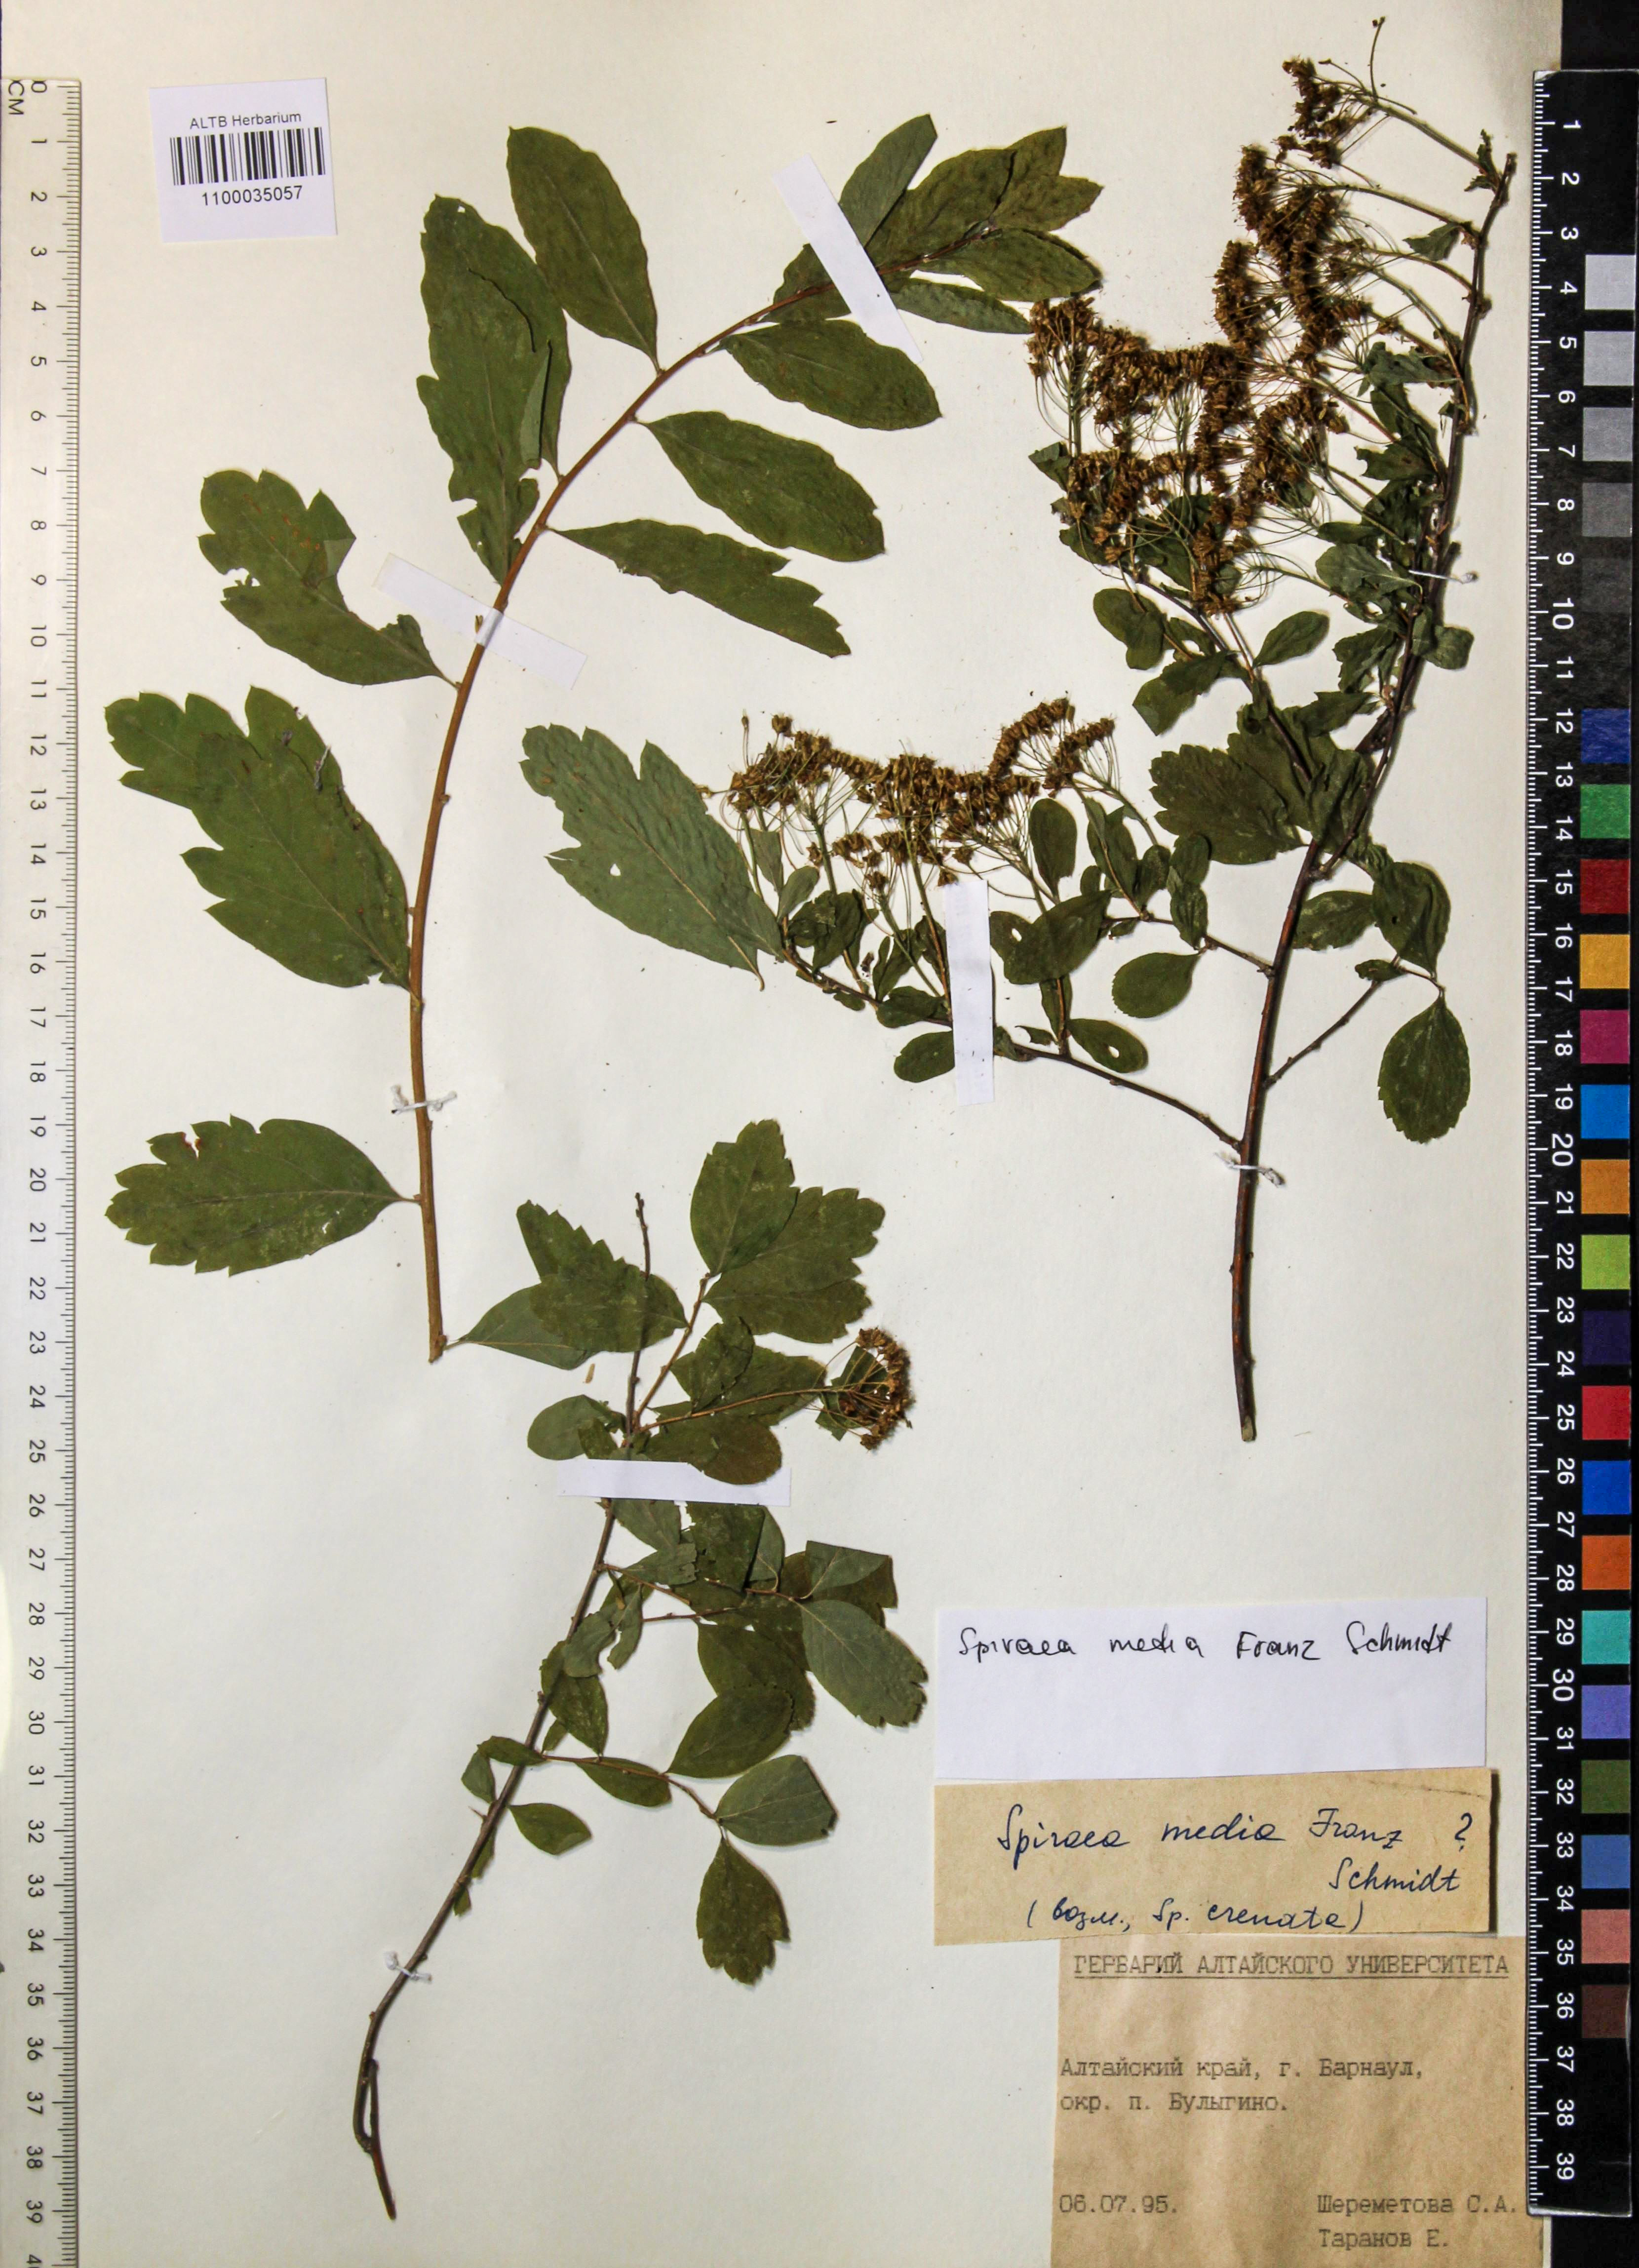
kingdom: Plantae
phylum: Tracheophyta
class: Magnoliopsida
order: Rosales
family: Rosaceae
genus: Spiraea
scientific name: Spiraea media
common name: Russian spiraea
